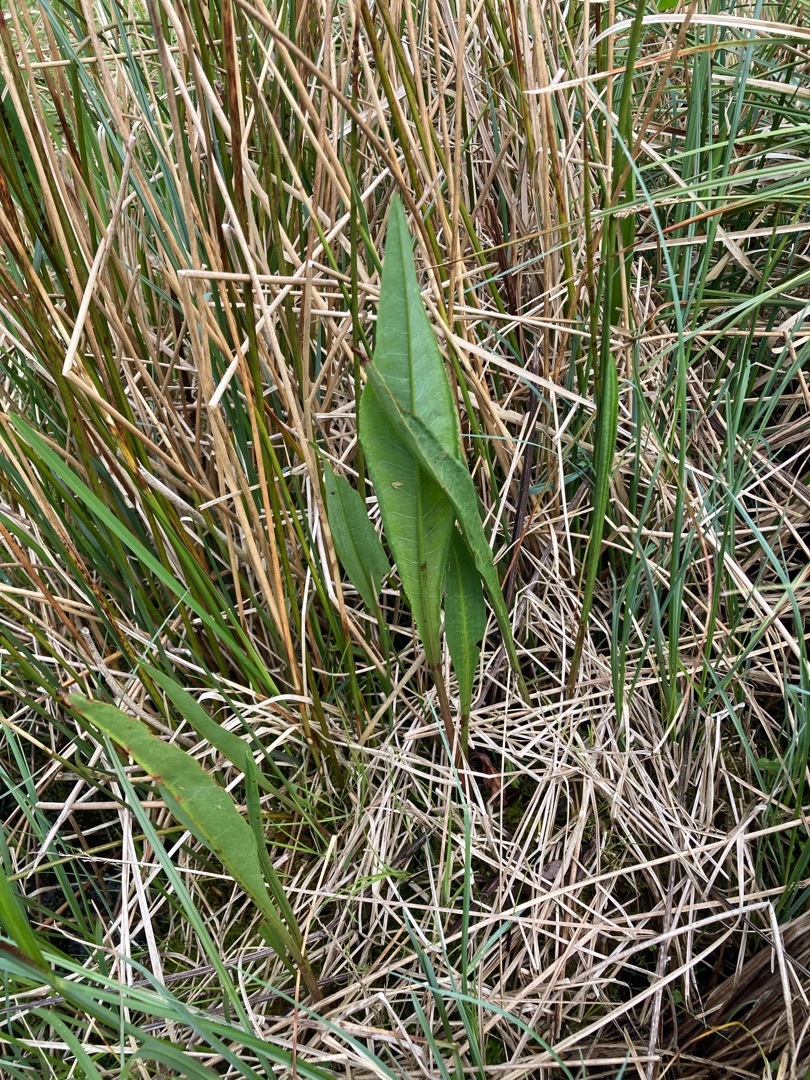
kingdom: Plantae
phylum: Tracheophyta
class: Magnoliopsida
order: Caryophyllales
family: Polygonaceae
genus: Rumex
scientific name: Rumex hydrolapathum
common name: Vand-skræppe
